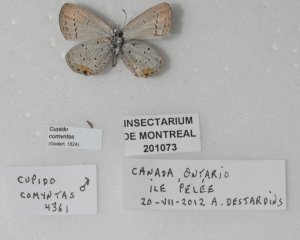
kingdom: Animalia
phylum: Arthropoda
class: Insecta
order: Lepidoptera
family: Lycaenidae
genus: Elkalyce
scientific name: Elkalyce comyntas
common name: Eastern Tailed-Blue
